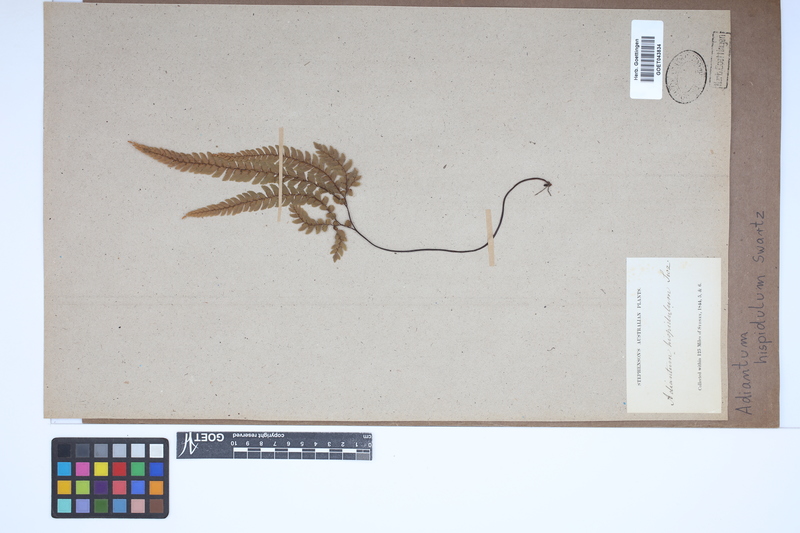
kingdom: Plantae
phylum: Tracheophyta
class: Polypodiopsida
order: Polypodiales
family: Pteridaceae
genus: Adiantum
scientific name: Adiantum hispidulum
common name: Rough maidenhair
